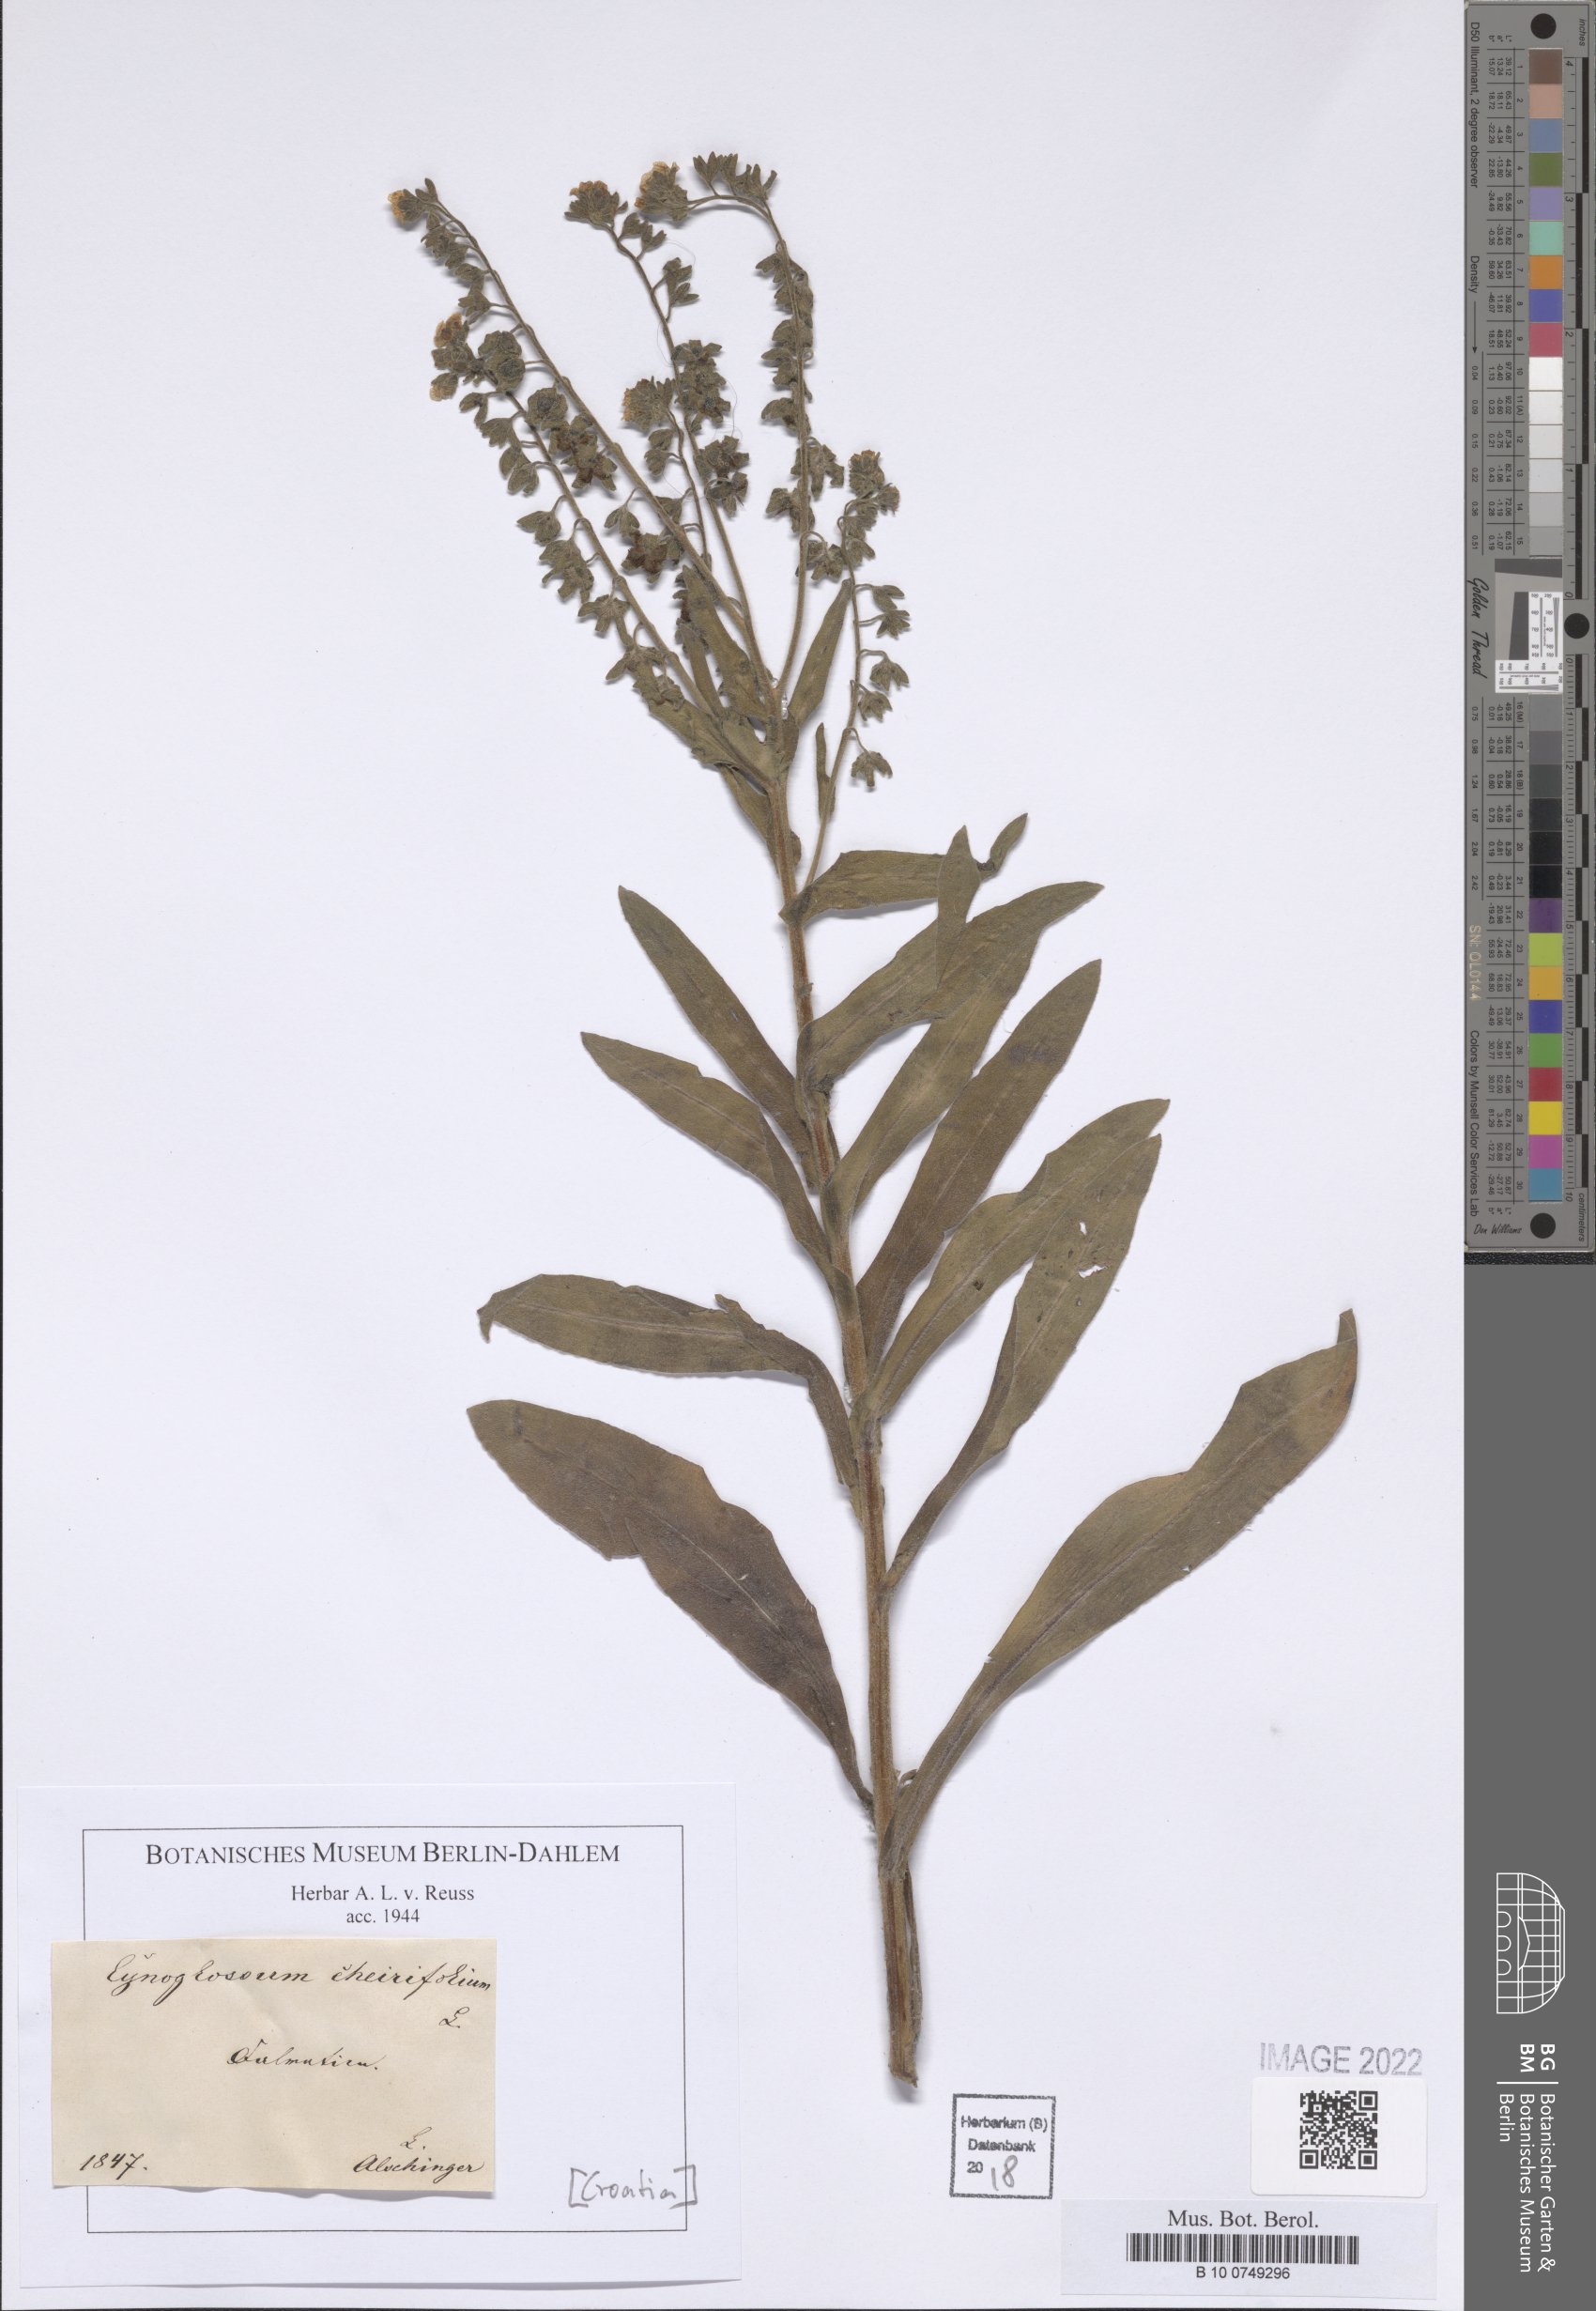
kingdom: Plantae
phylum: Tracheophyta
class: Magnoliopsida
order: Boraginales
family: Boraginaceae
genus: Pardoglossum
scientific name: Pardoglossum cheirifolium
